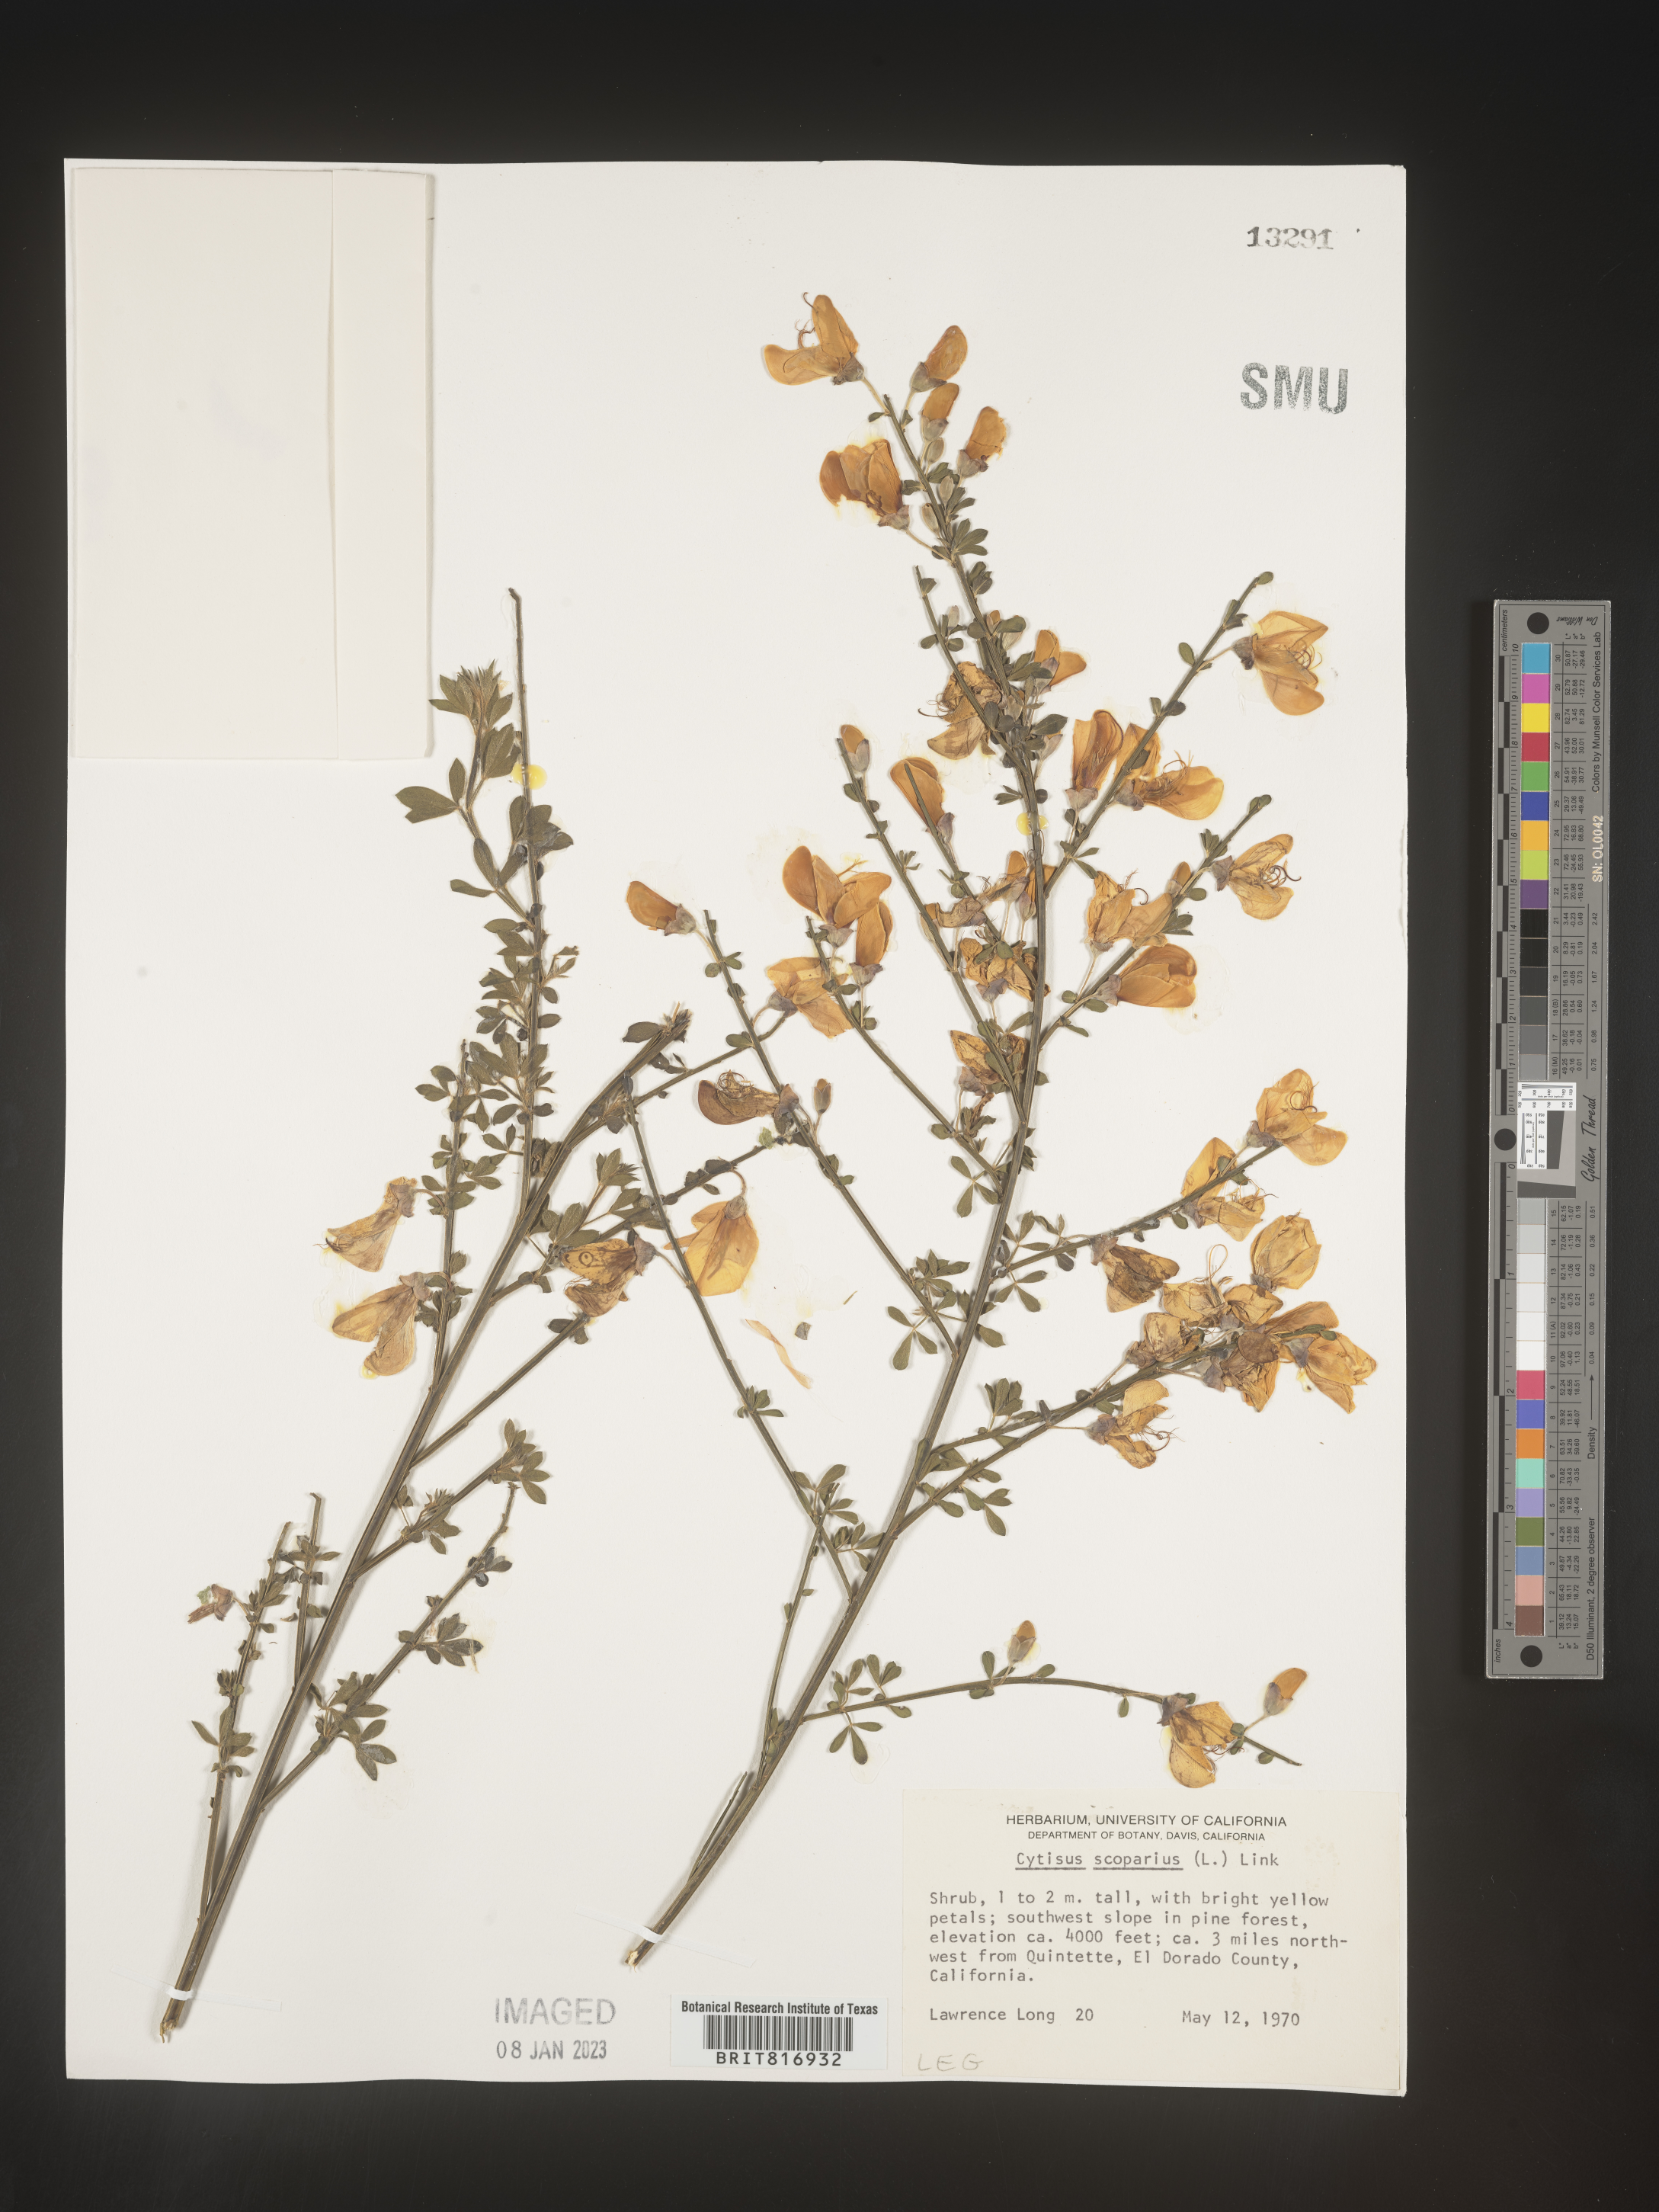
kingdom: Plantae
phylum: Tracheophyta
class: Magnoliopsida
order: Fabales
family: Fabaceae
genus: Cytisus
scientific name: Cytisus
